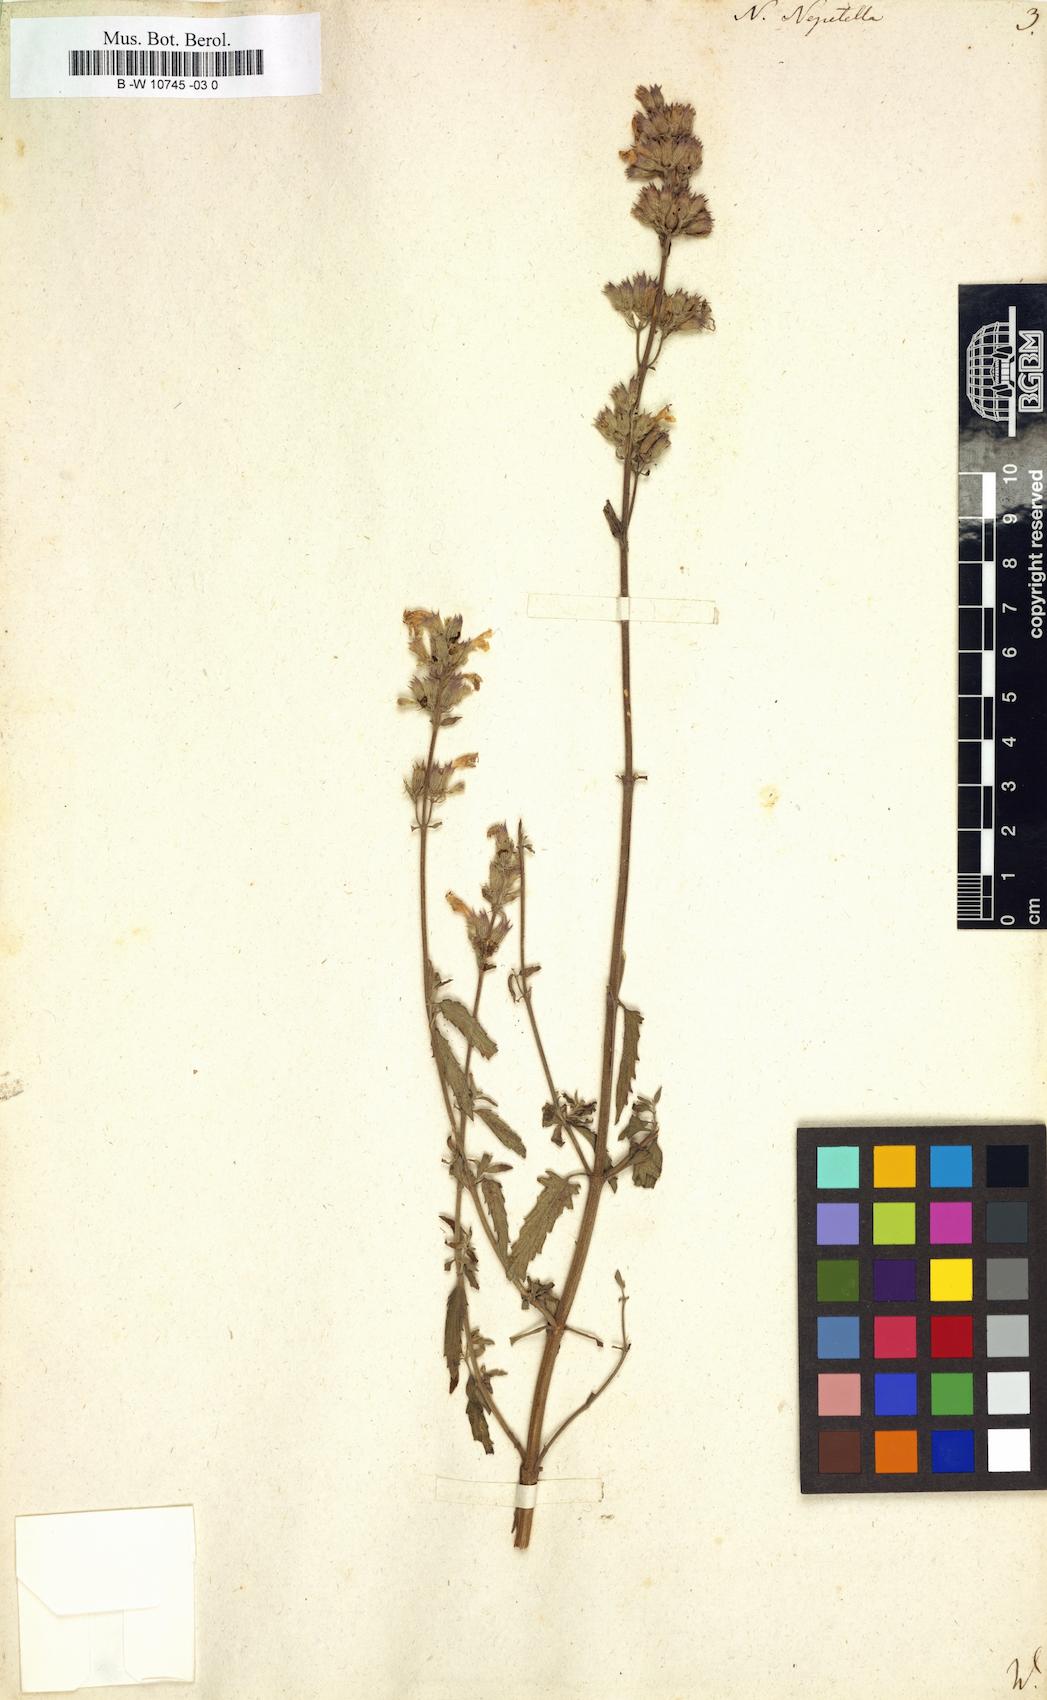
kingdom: Plantae
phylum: Tracheophyta
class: Magnoliopsida
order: Lamiales
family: Lamiaceae
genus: Nepeta
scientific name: Nepeta nepetella
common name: Lesser catmint
